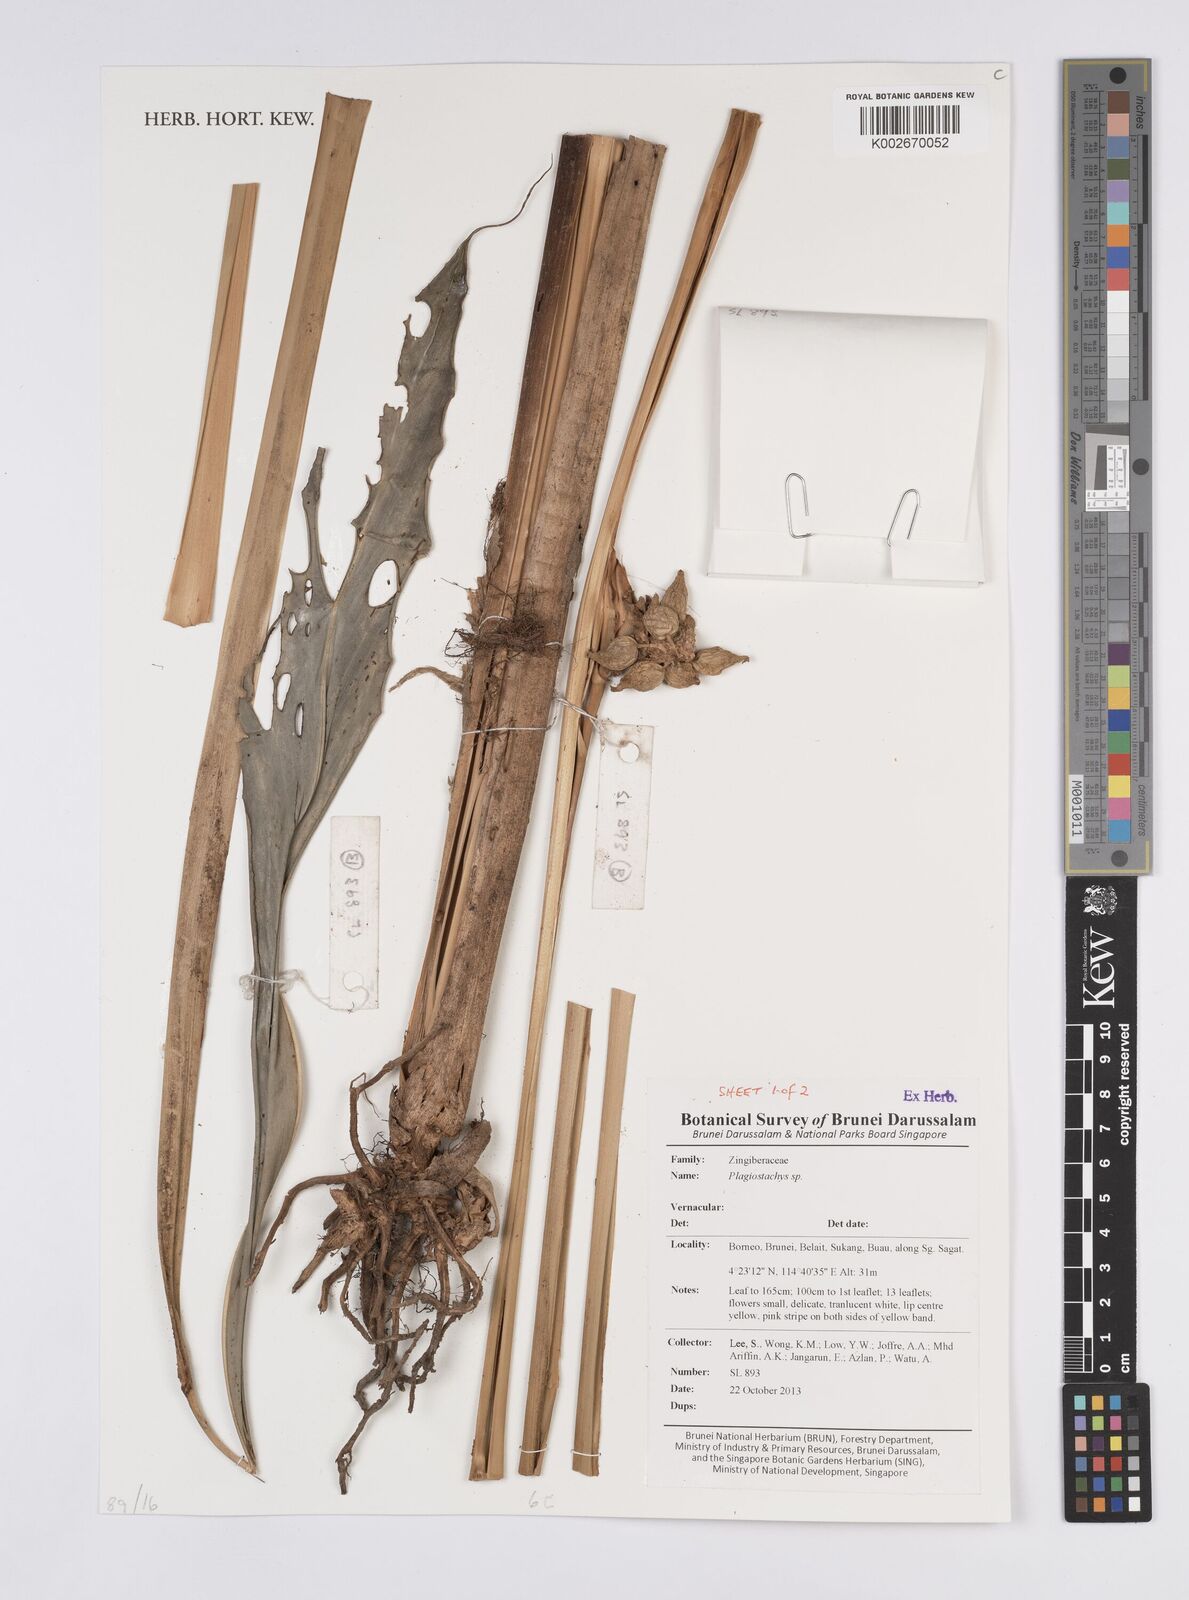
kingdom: Plantae
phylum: Tracheophyta
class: Liliopsida
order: Zingiberales
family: Zingiberaceae
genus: Plagiostachys
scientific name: Plagiostachys
